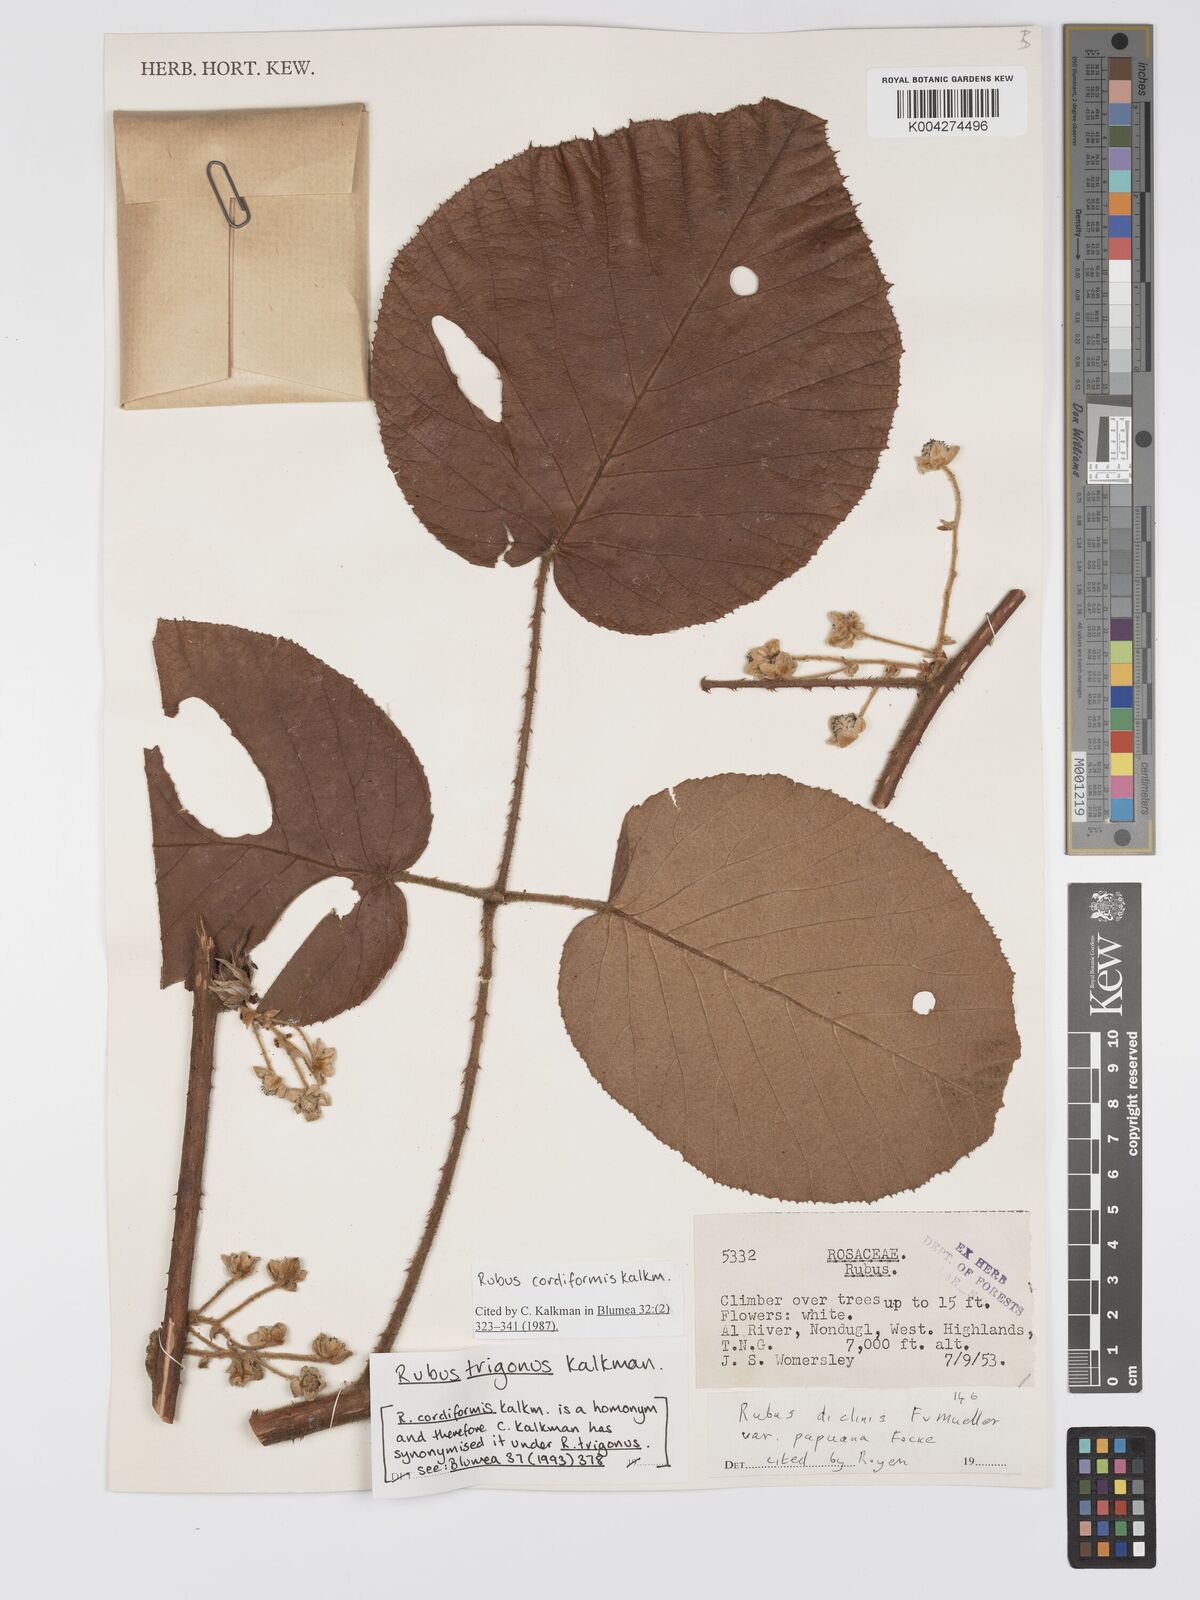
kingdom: Plantae
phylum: Tracheophyta
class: Magnoliopsida
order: Rosales
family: Rosaceae
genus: Rubus
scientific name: Rubus trigonus
